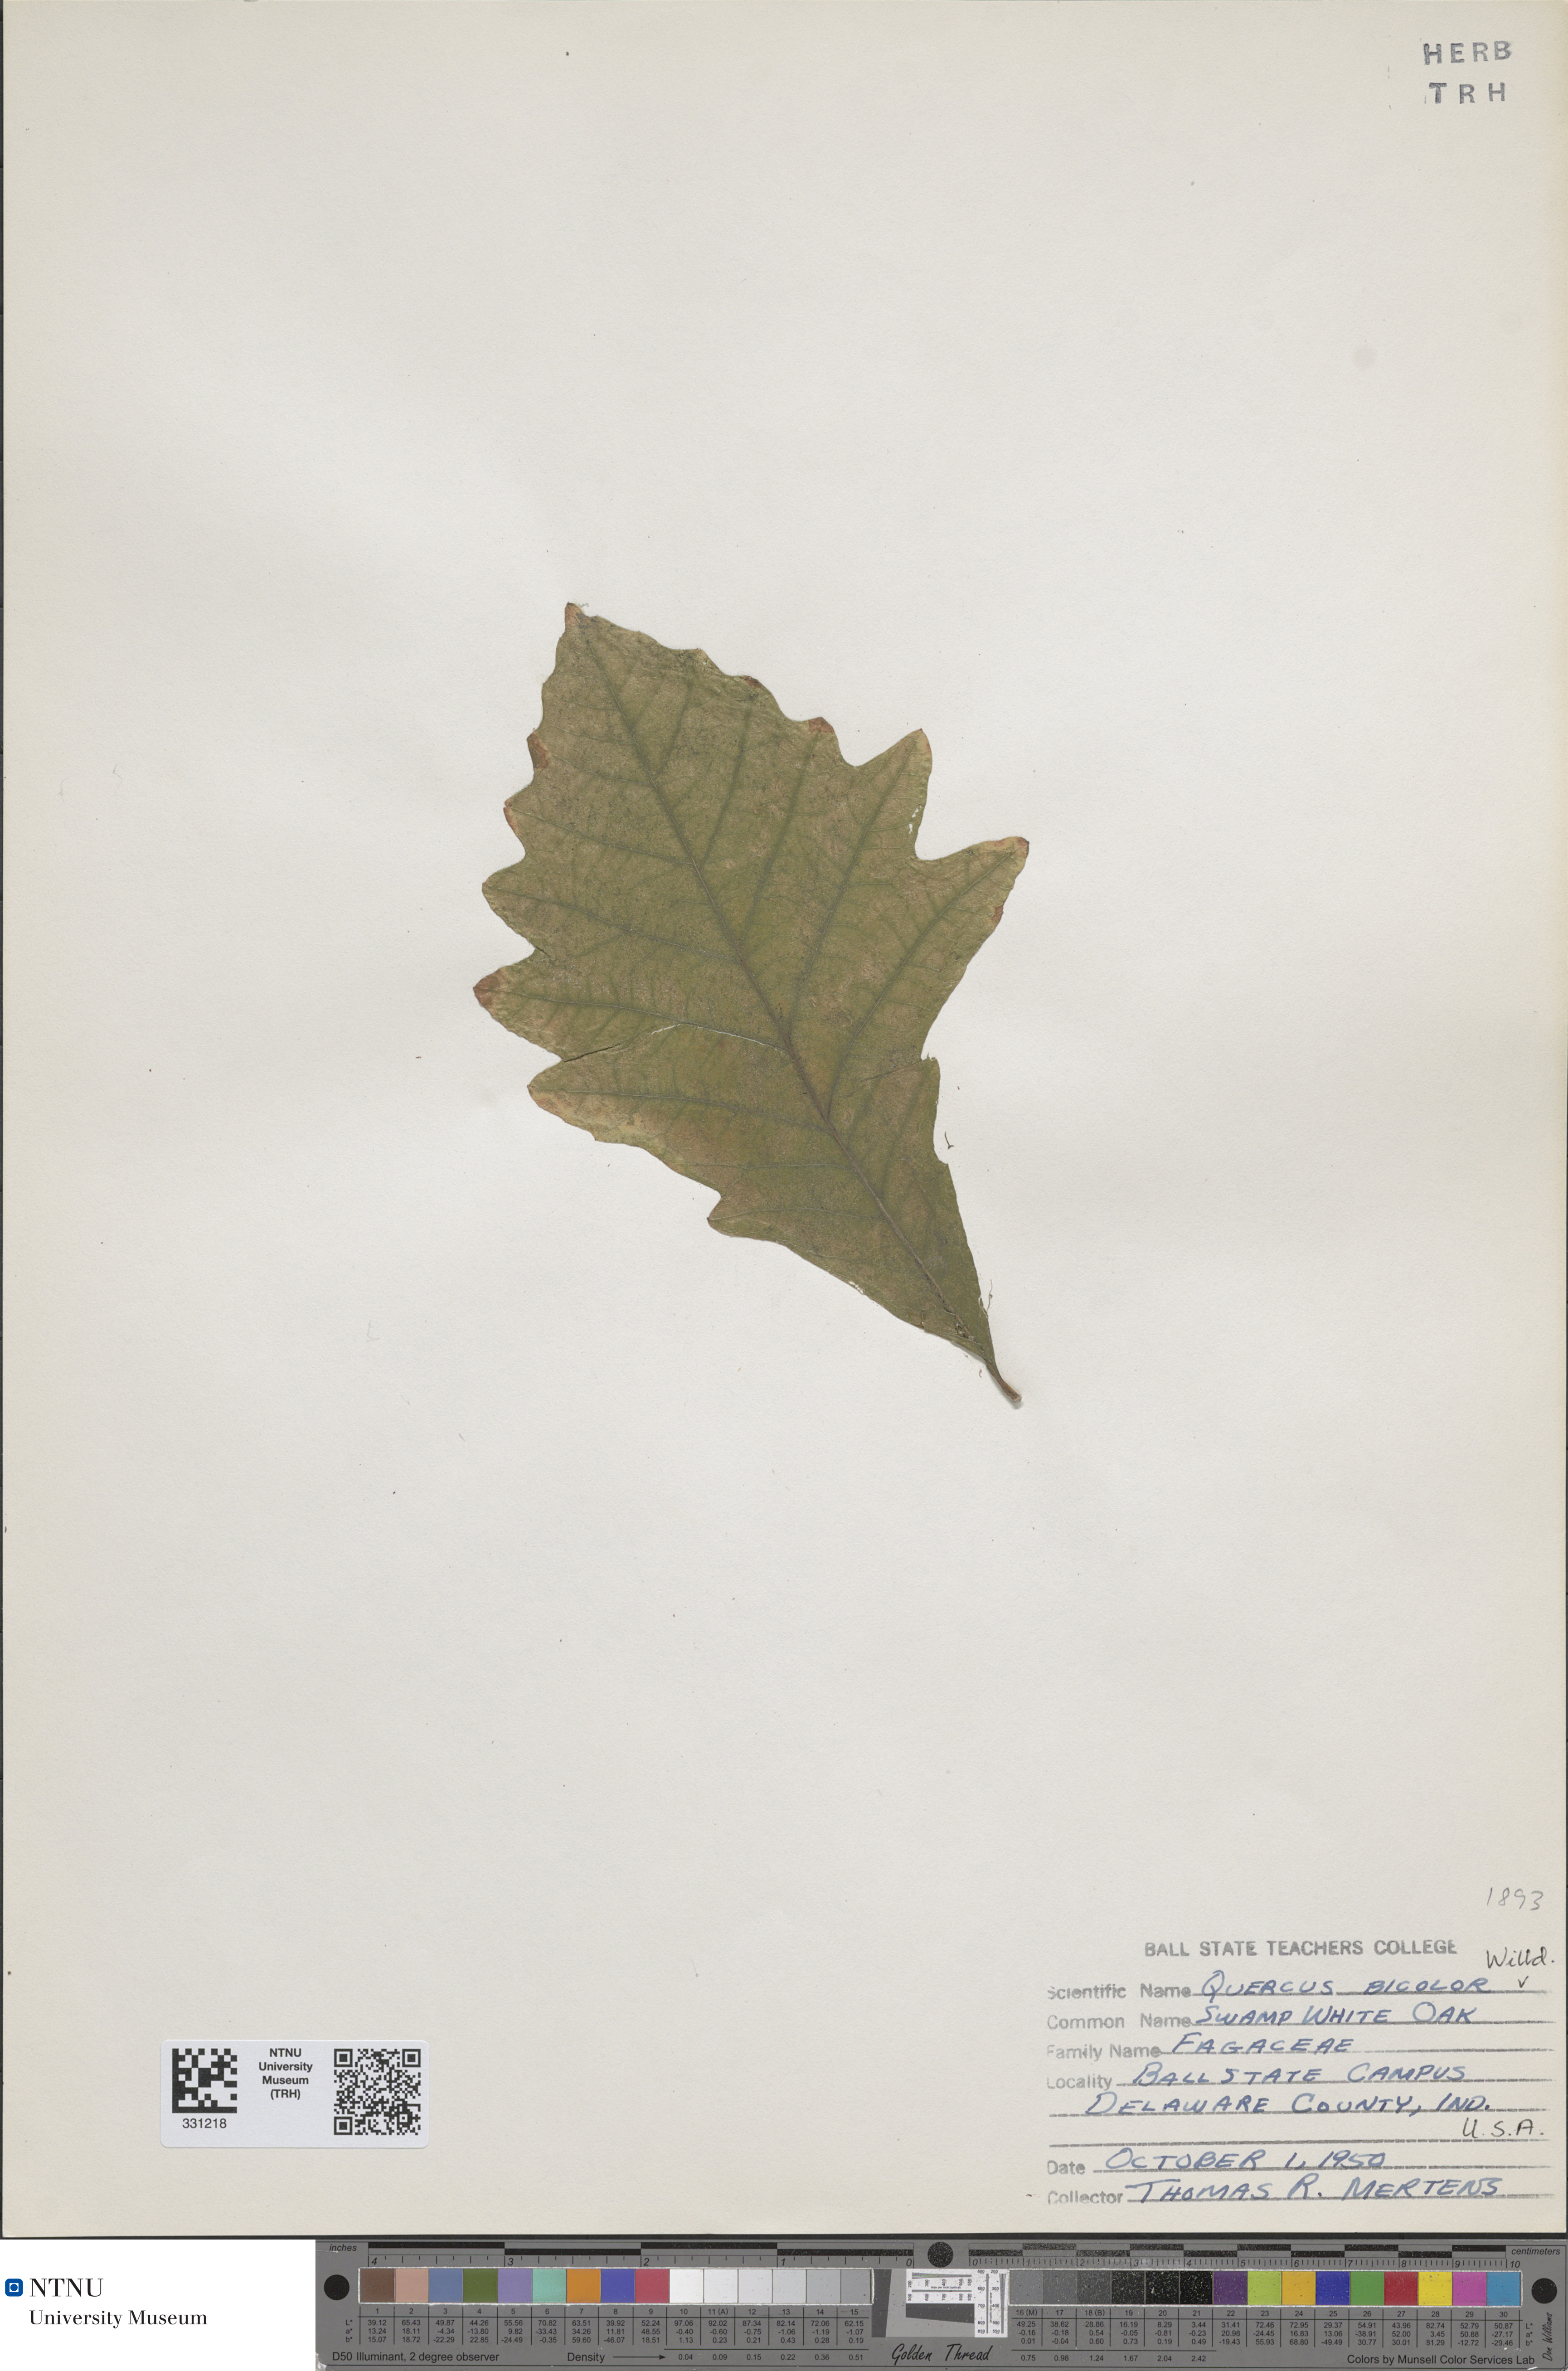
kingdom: Plantae
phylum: Tracheophyta
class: Magnoliopsida
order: Fagales
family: Fagaceae
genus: Quercus
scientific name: Quercus bicolor
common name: Swamp white oak
